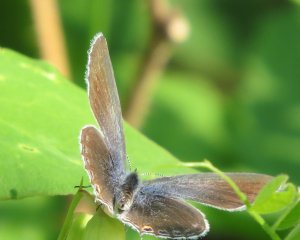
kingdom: Animalia
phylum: Arthropoda
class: Insecta
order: Lepidoptera
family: Lycaenidae
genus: Elkalyce
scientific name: Elkalyce amyntula
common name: Western Tailed-Blue
